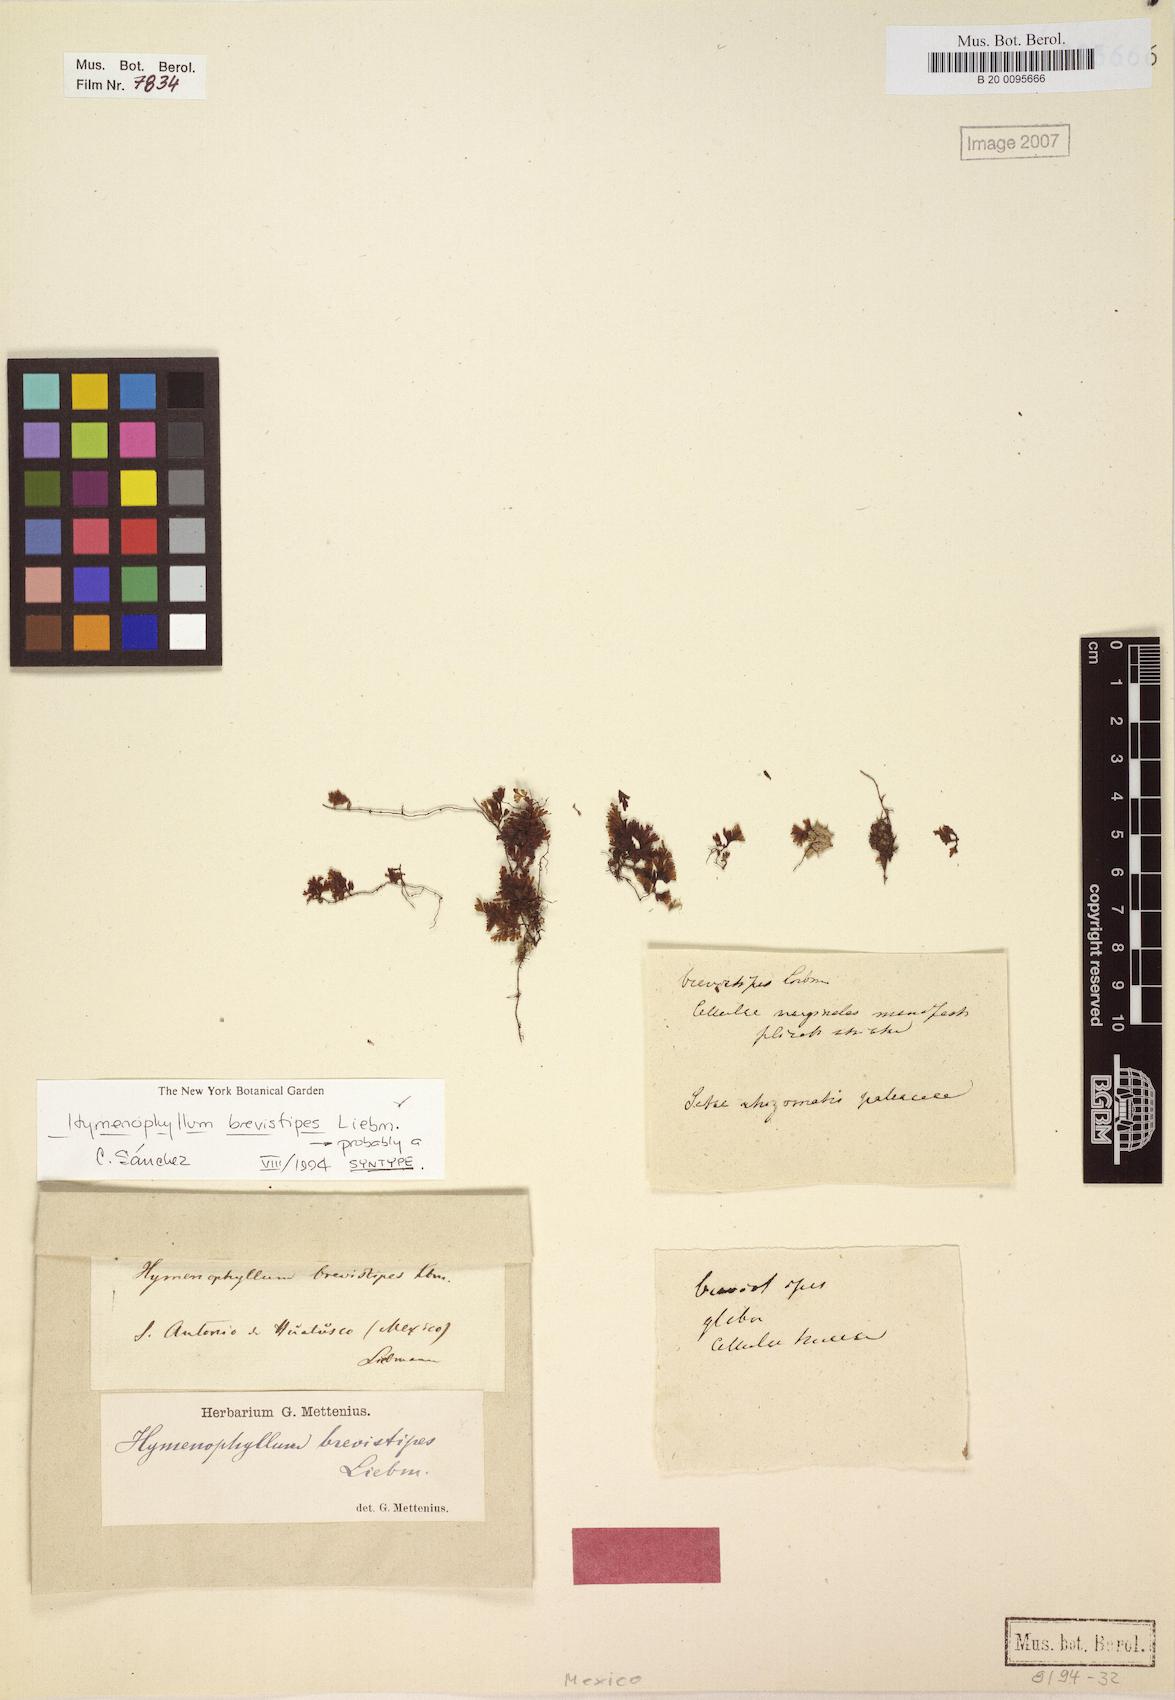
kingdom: Plantae
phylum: Tracheophyta
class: Polypodiopsida
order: Hymenophyllales
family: Hymenophyllaceae
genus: Hymenophyllum
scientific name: Hymenophyllum brevistipes
